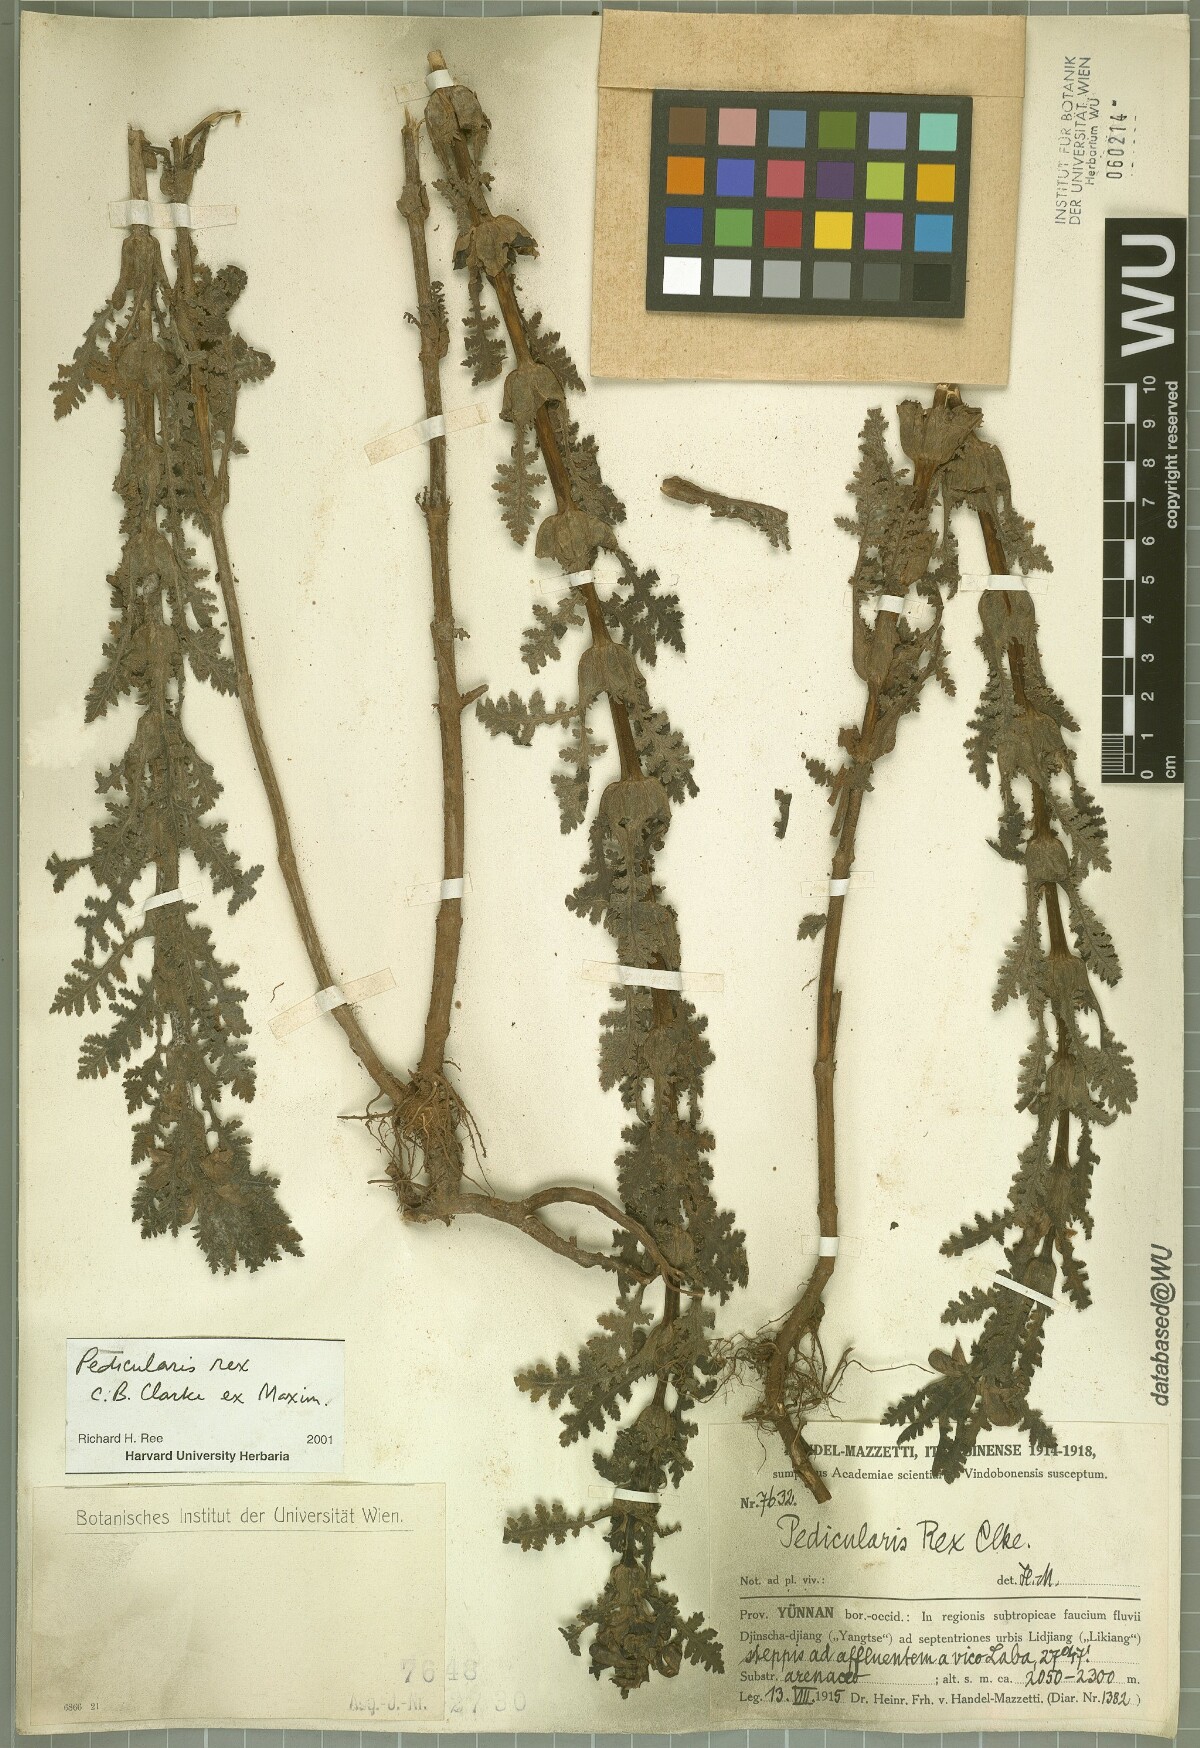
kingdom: Plantae
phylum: Tracheophyta
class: Magnoliopsida
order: Lamiales
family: Orobanchaceae
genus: Pedicularis
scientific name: Pedicularis rex
